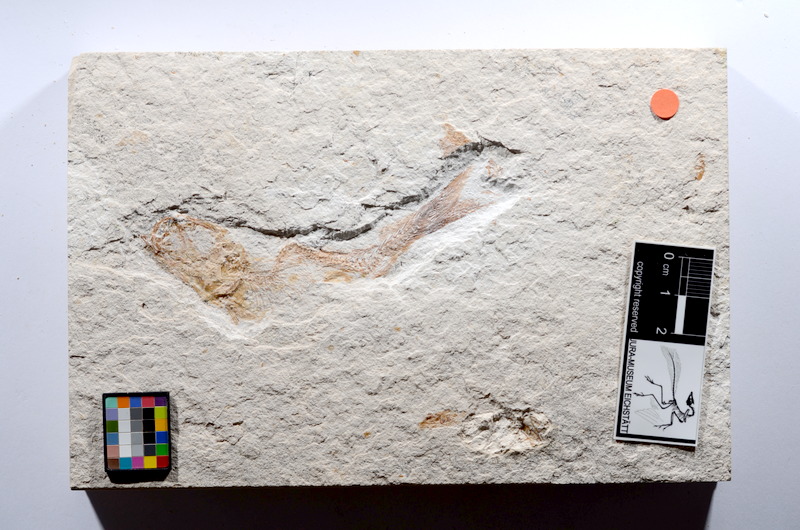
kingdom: Animalia
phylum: Chordata
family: Ascalaboidae
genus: Tharsis
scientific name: Tharsis dubius
